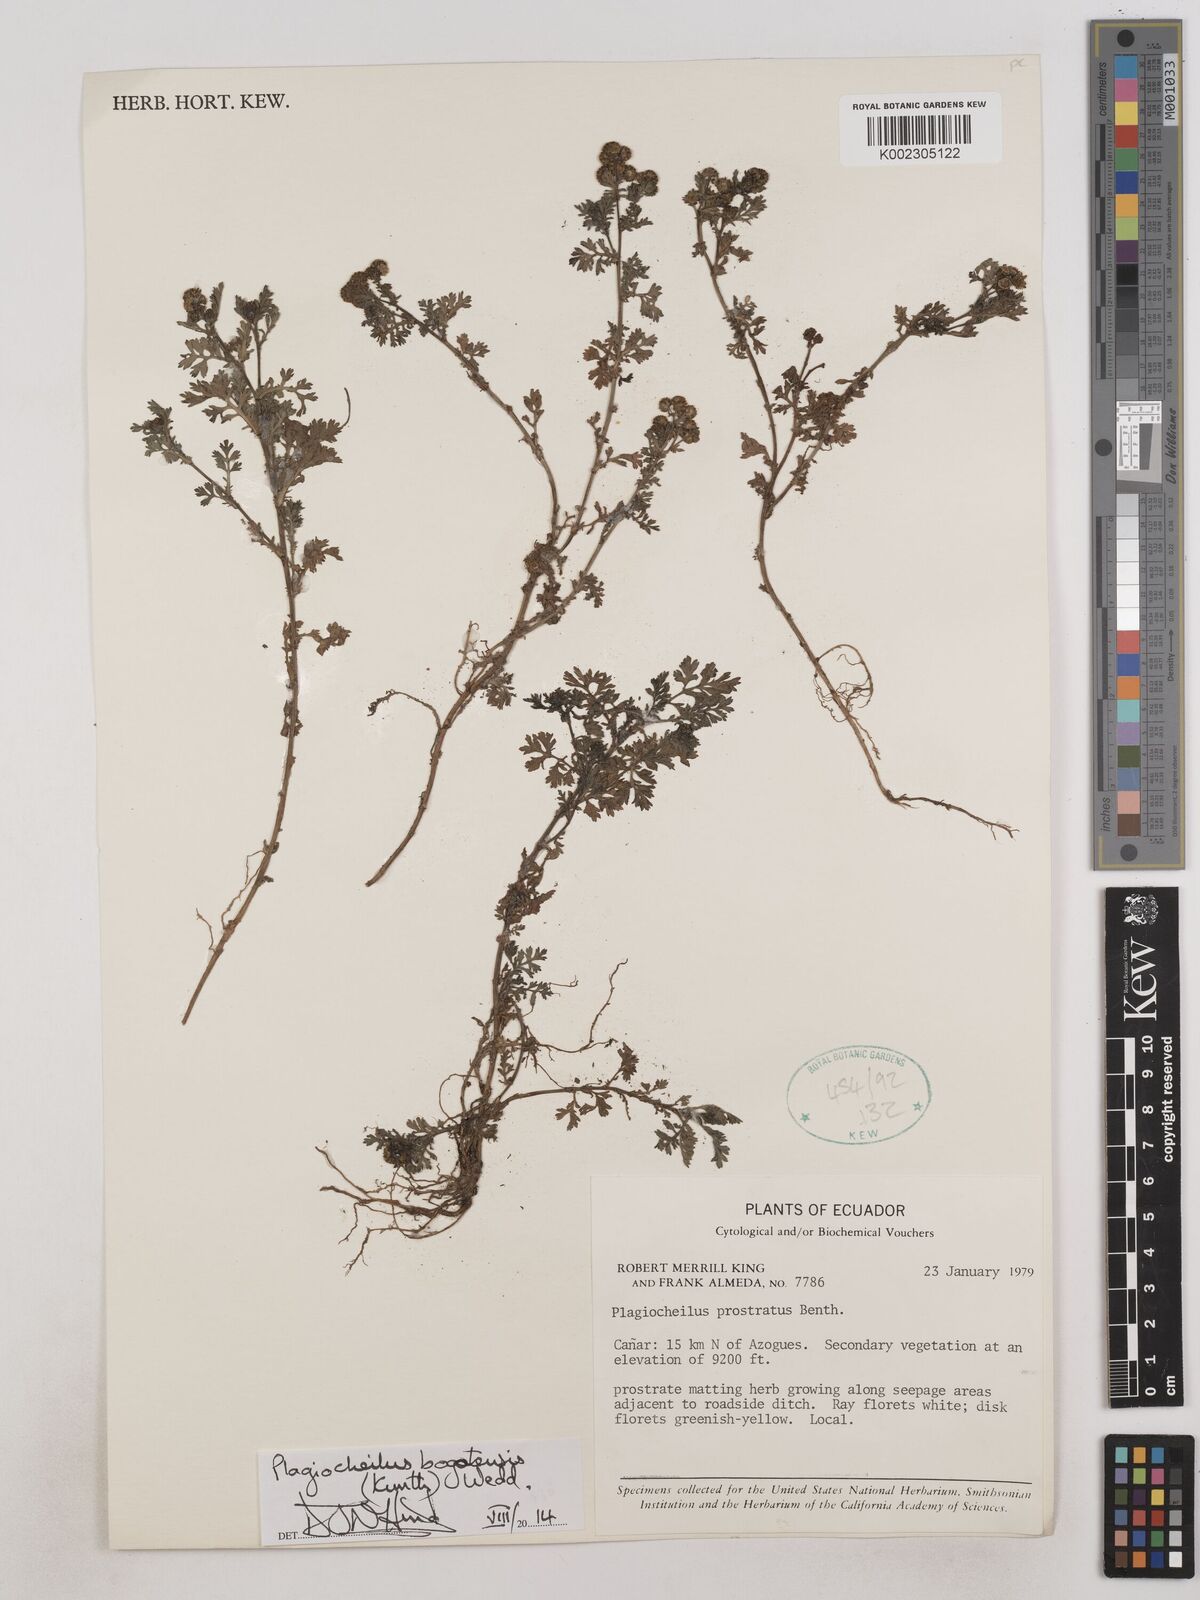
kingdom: Plantae
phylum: Tracheophyta
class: Magnoliopsida
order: Asterales
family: Asteraceae
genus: Plagiocheilus
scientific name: Plagiocheilus bogotensis
